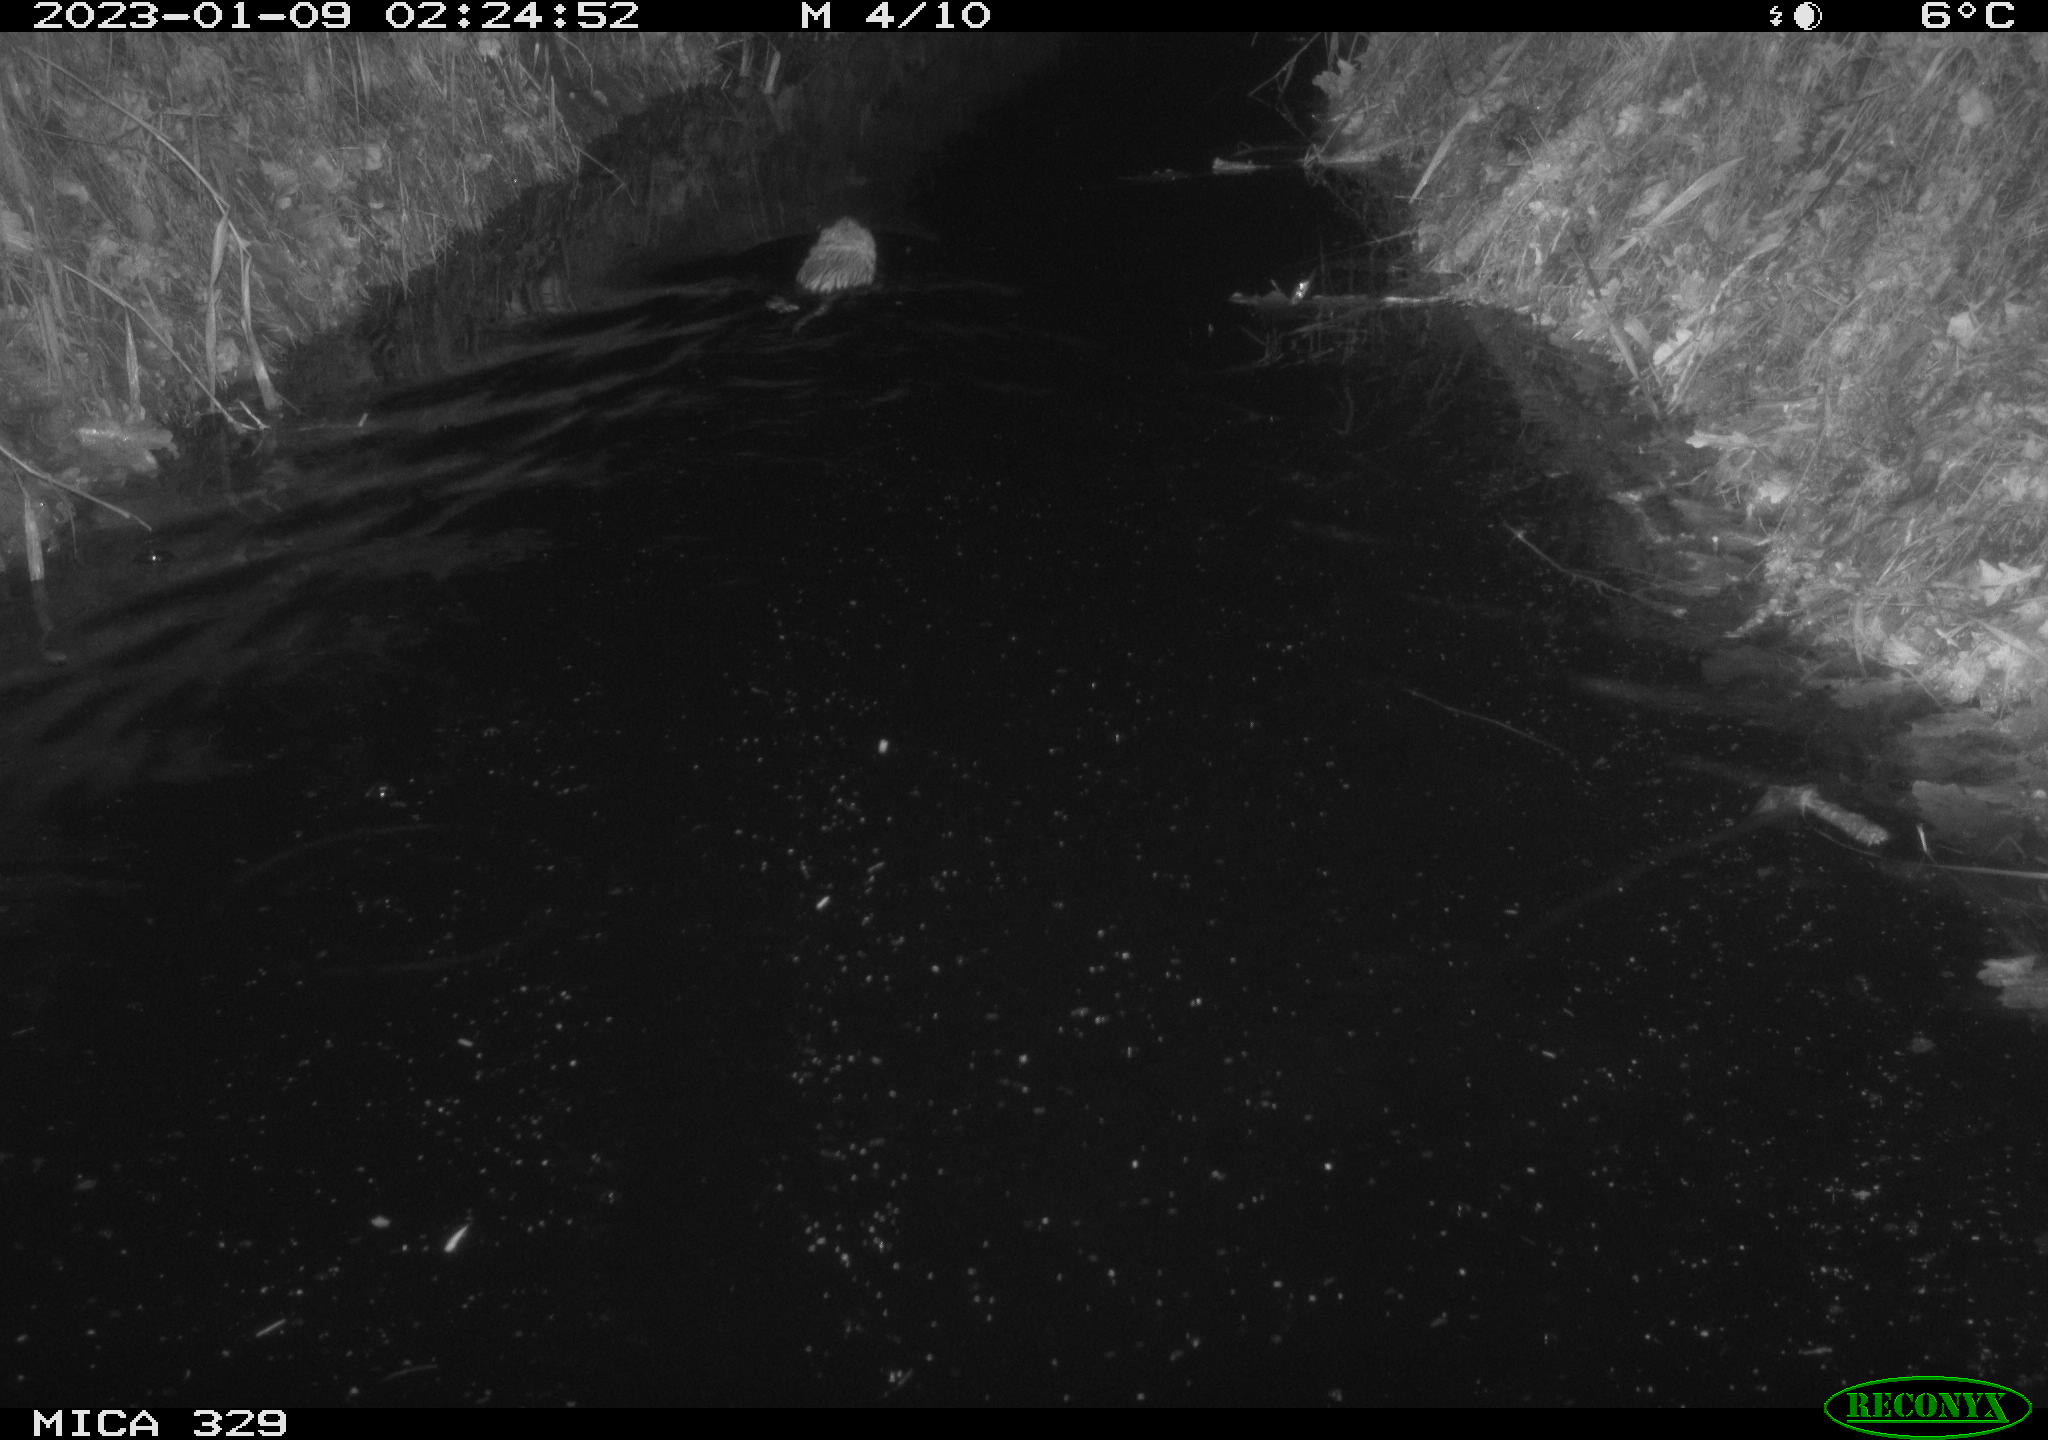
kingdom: Animalia
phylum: Chordata
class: Mammalia
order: Rodentia
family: Cricetidae
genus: Ondatra
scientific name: Ondatra zibethicus
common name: Muskrat
